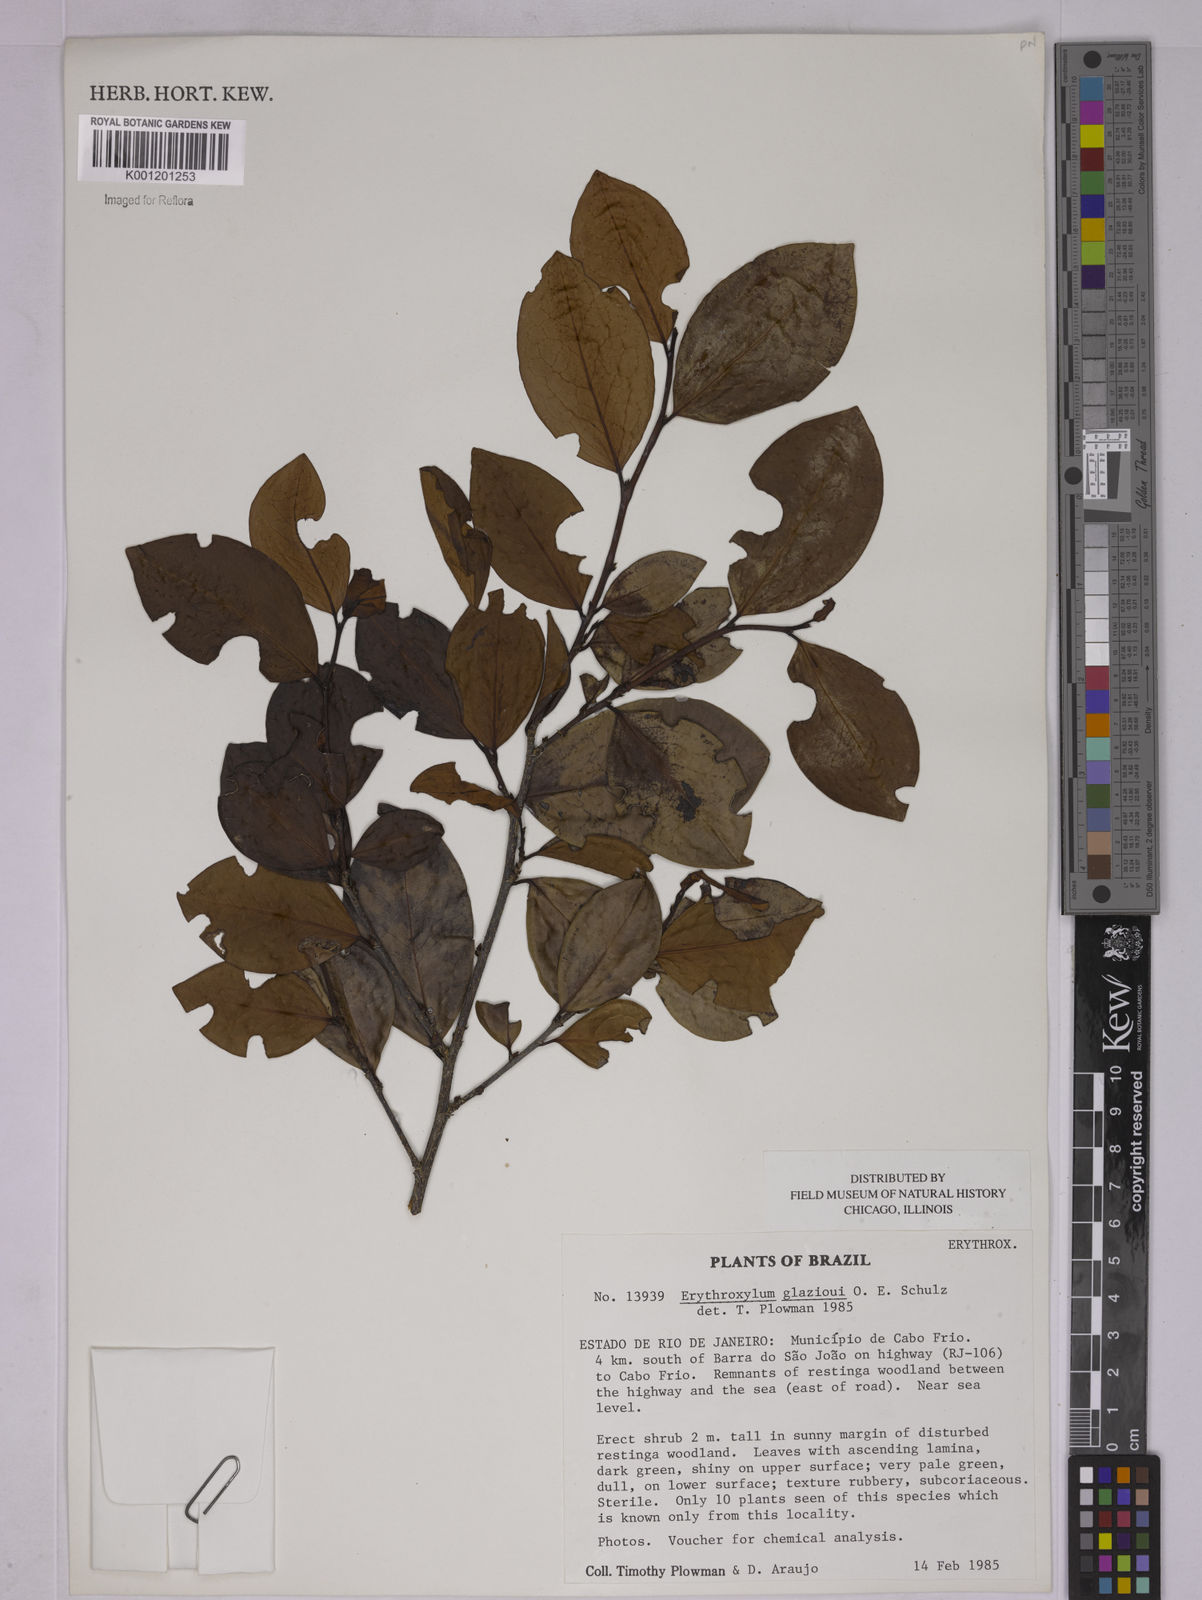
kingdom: Plantae
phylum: Tracheophyta
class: Magnoliopsida
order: Malpighiales
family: Erythroxylaceae
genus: Erythroxylum
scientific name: Erythroxylum
